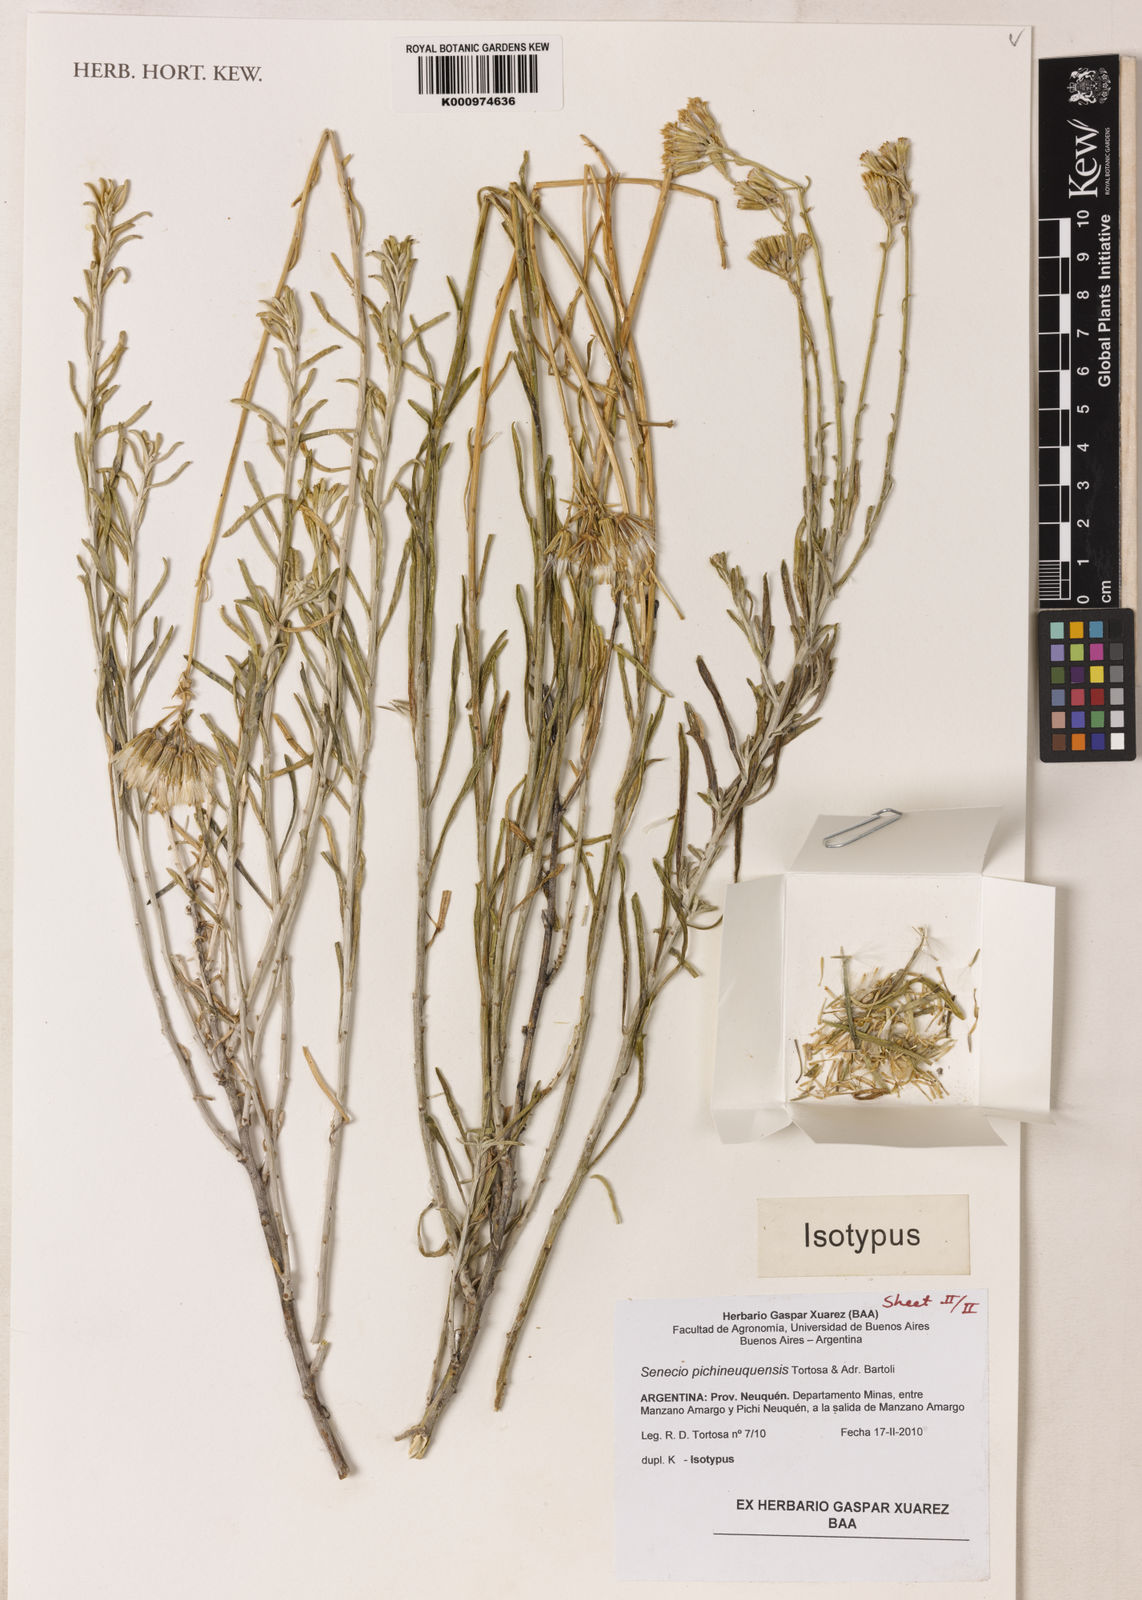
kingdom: Plantae
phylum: Tracheophyta
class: Magnoliopsida
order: Asterales
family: Asteraceae
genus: Senecio
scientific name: Senecio pichineuquensis
